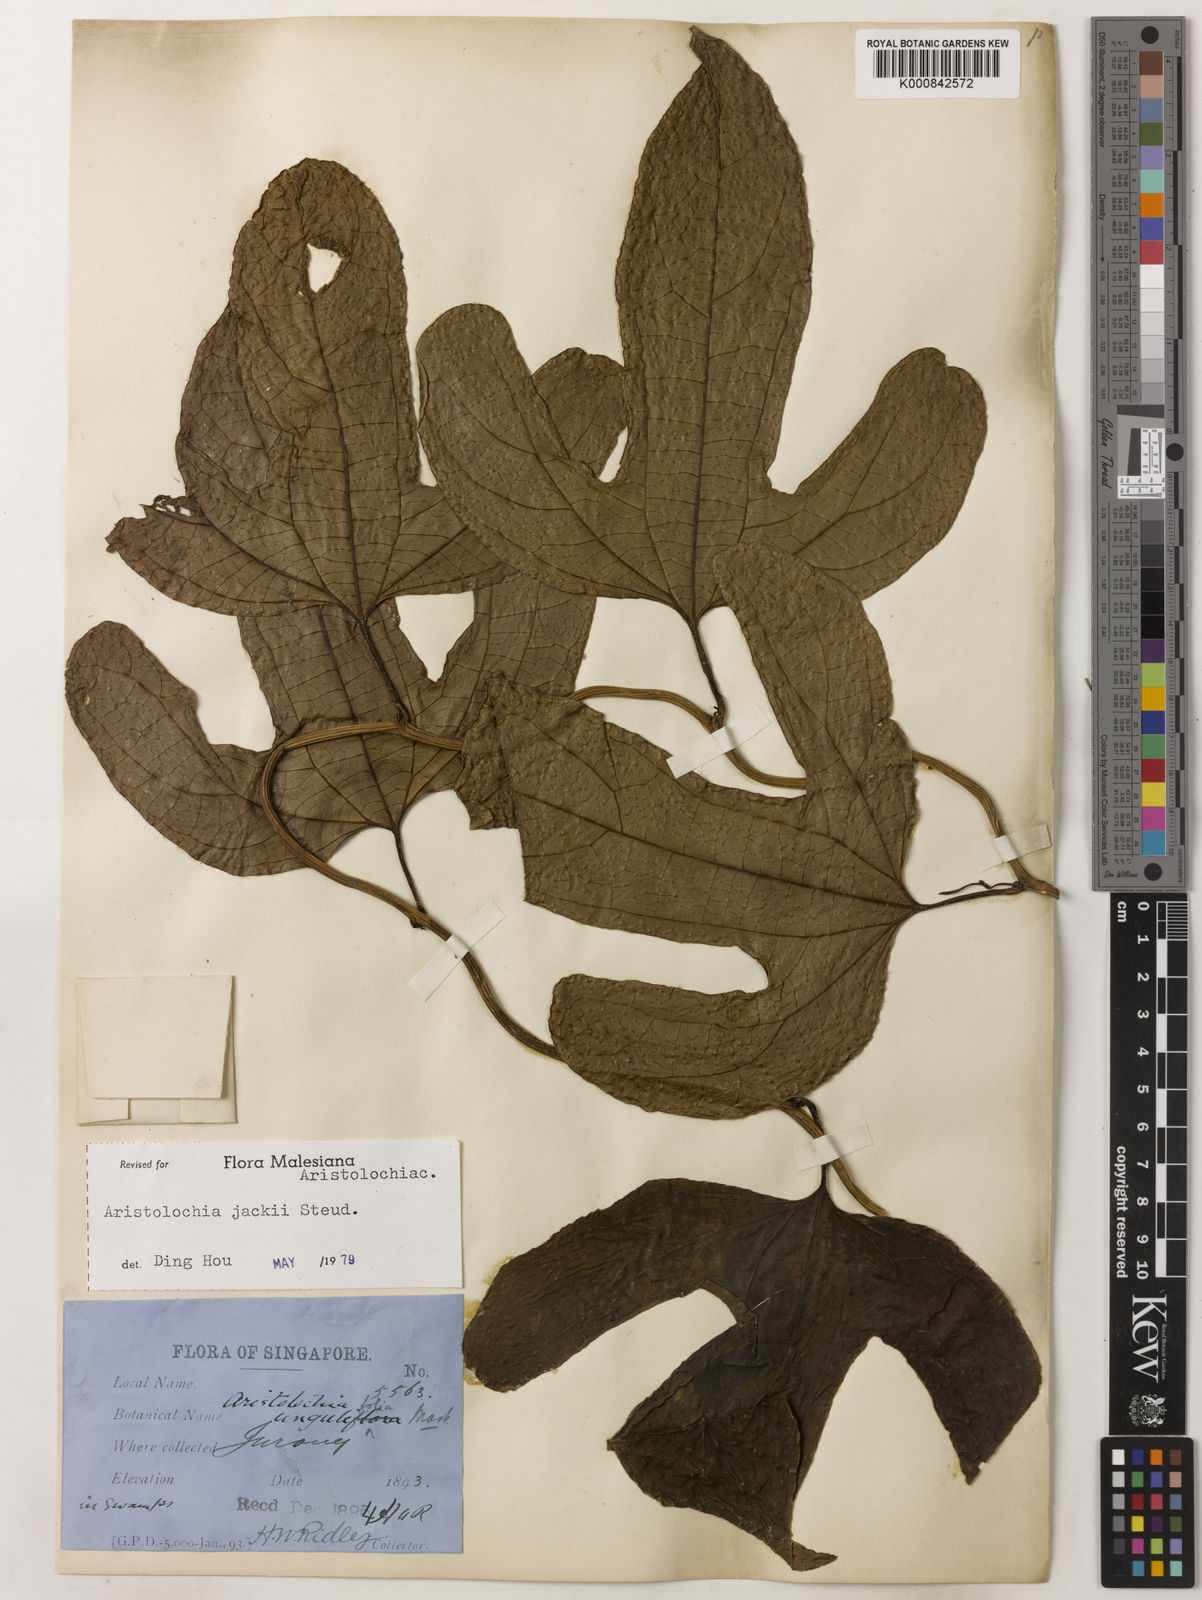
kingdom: Plantae
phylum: Tracheophyta
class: Magnoliopsida
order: Piperales
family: Aristolochiaceae
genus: Aristolochia
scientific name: Aristolochia jackii
